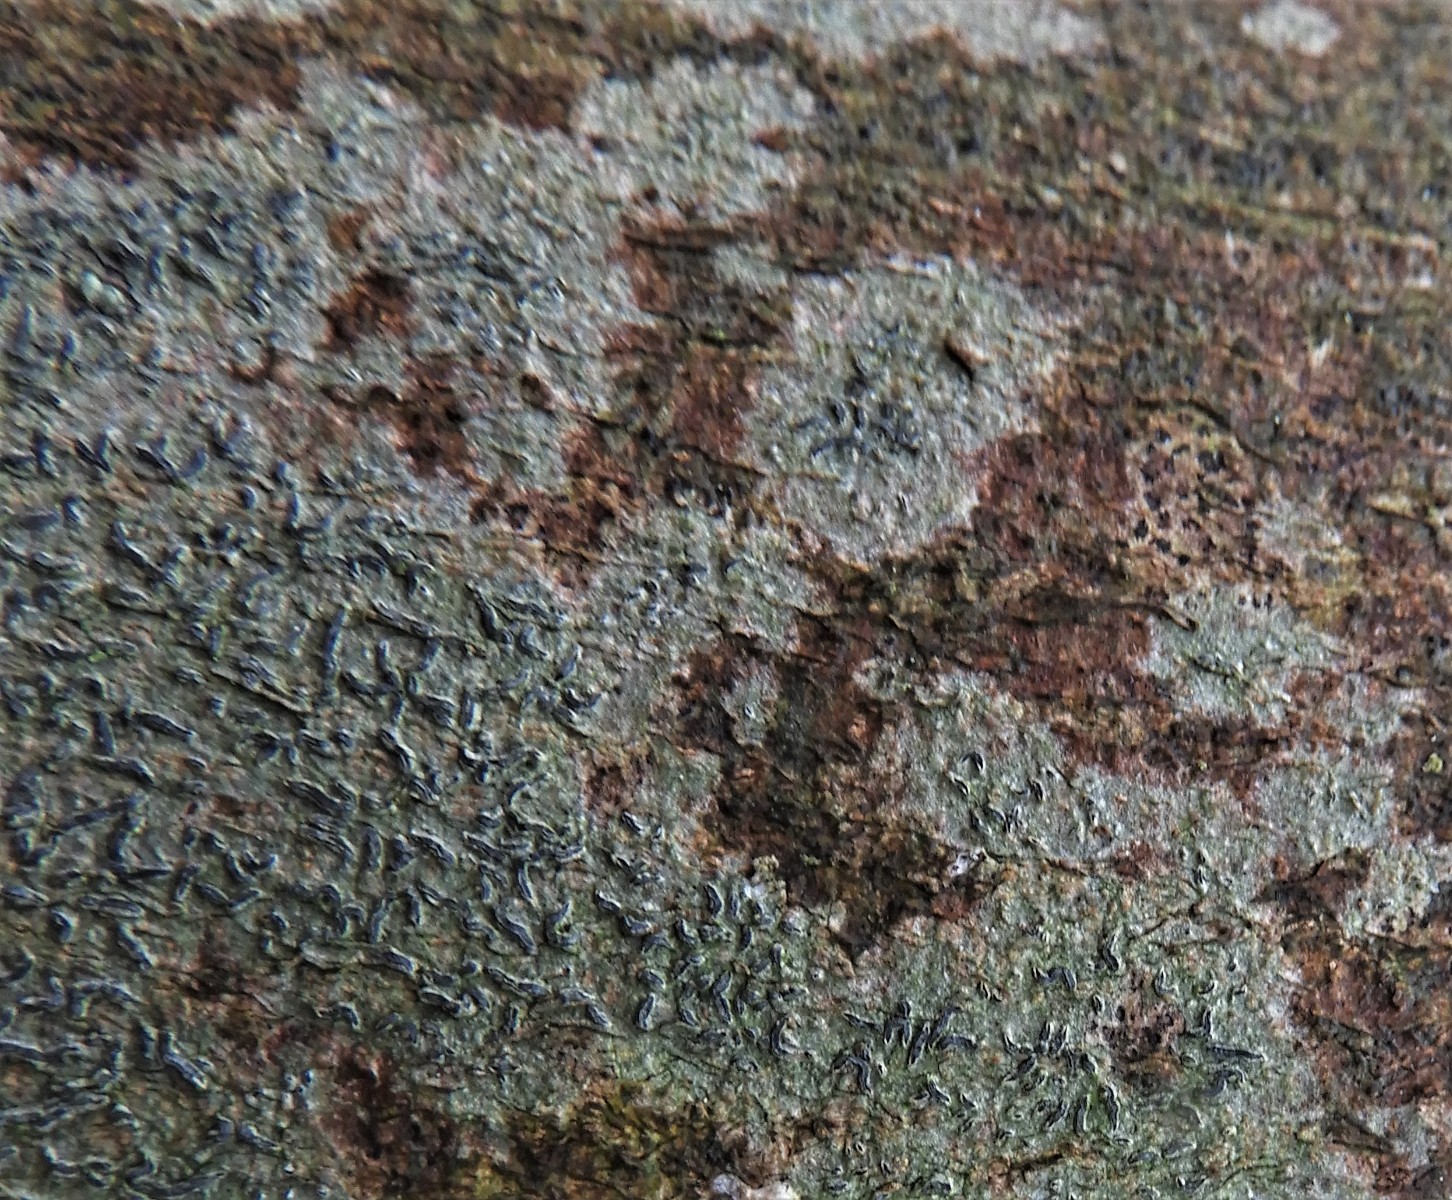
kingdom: Fungi
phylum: Ascomycota
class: Lecanoromycetes
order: Ostropales
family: Graphidaceae
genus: Graphis
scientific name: Graphis scripta
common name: almindelig skriftlav
